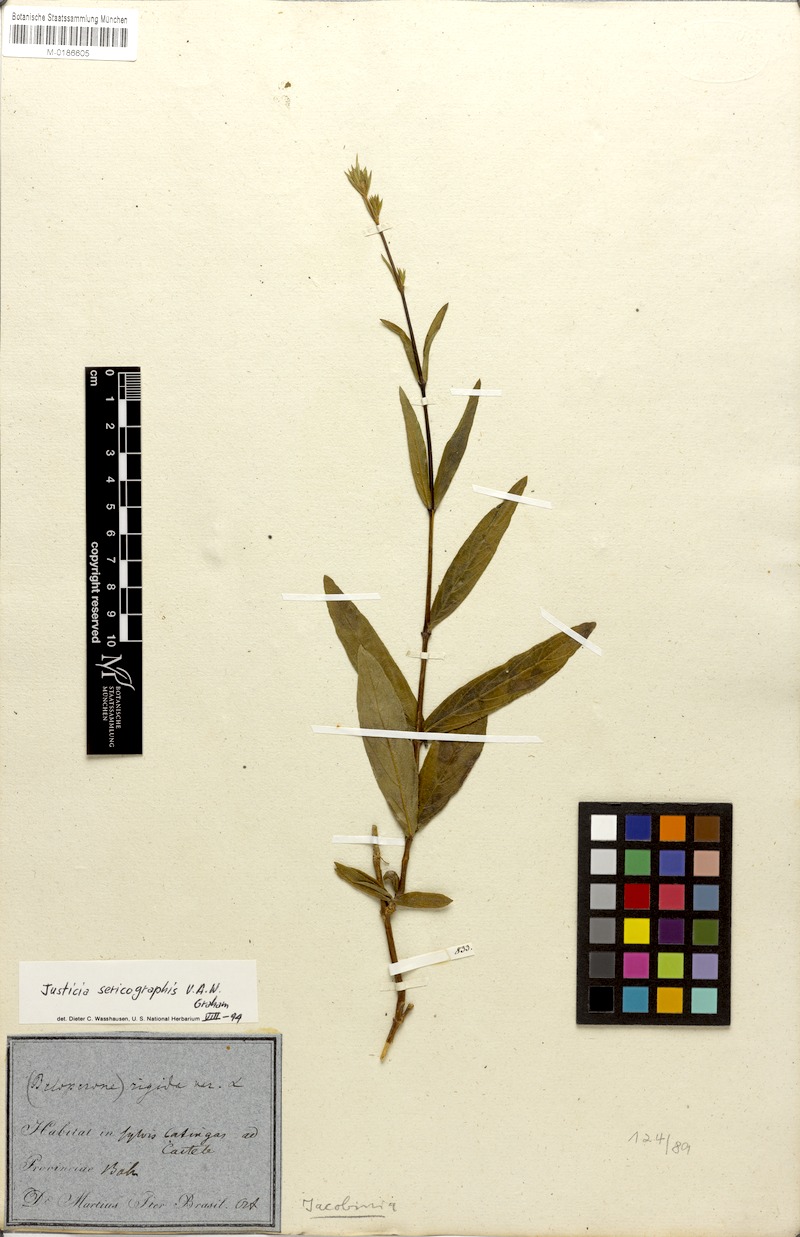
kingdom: Plantae
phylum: Tracheophyta
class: Magnoliopsida
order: Lamiales
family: Acanthaceae
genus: Dianthera
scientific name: Dianthera rigida
